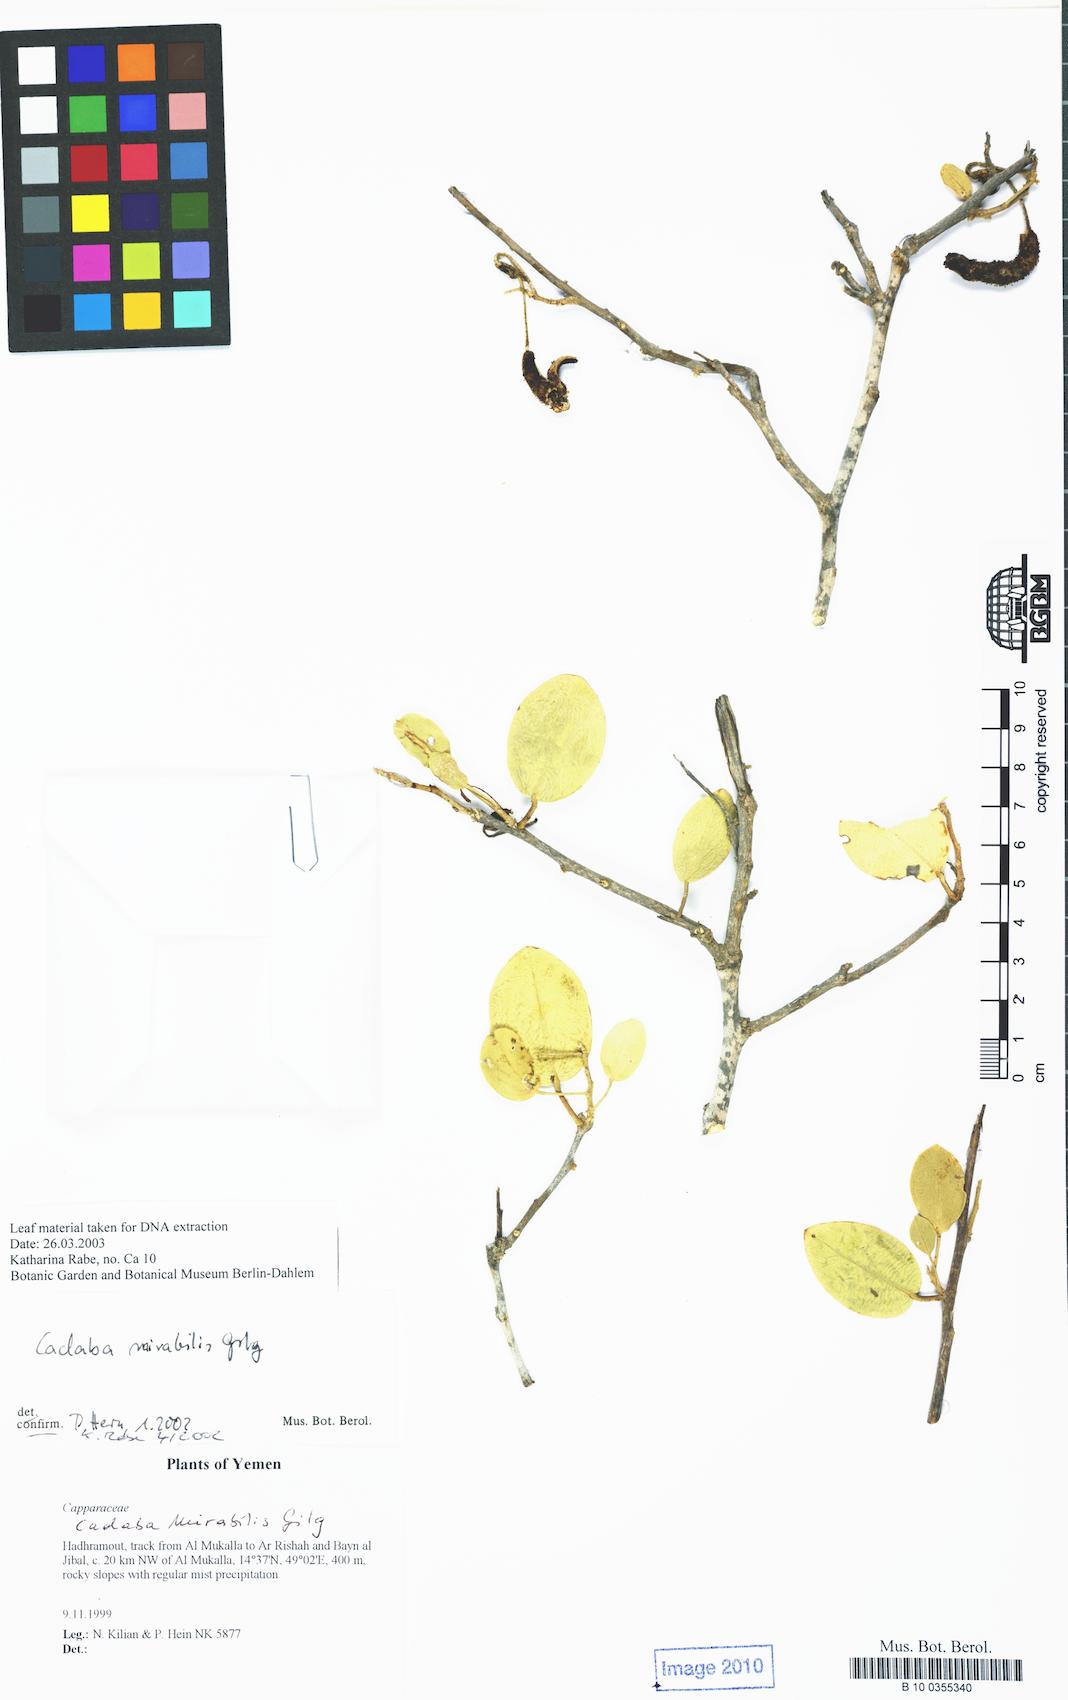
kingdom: Plantae
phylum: Tracheophyta
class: Magnoliopsida
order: Brassicales
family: Capparaceae
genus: Cadaba
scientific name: Cadaba mirabilis
